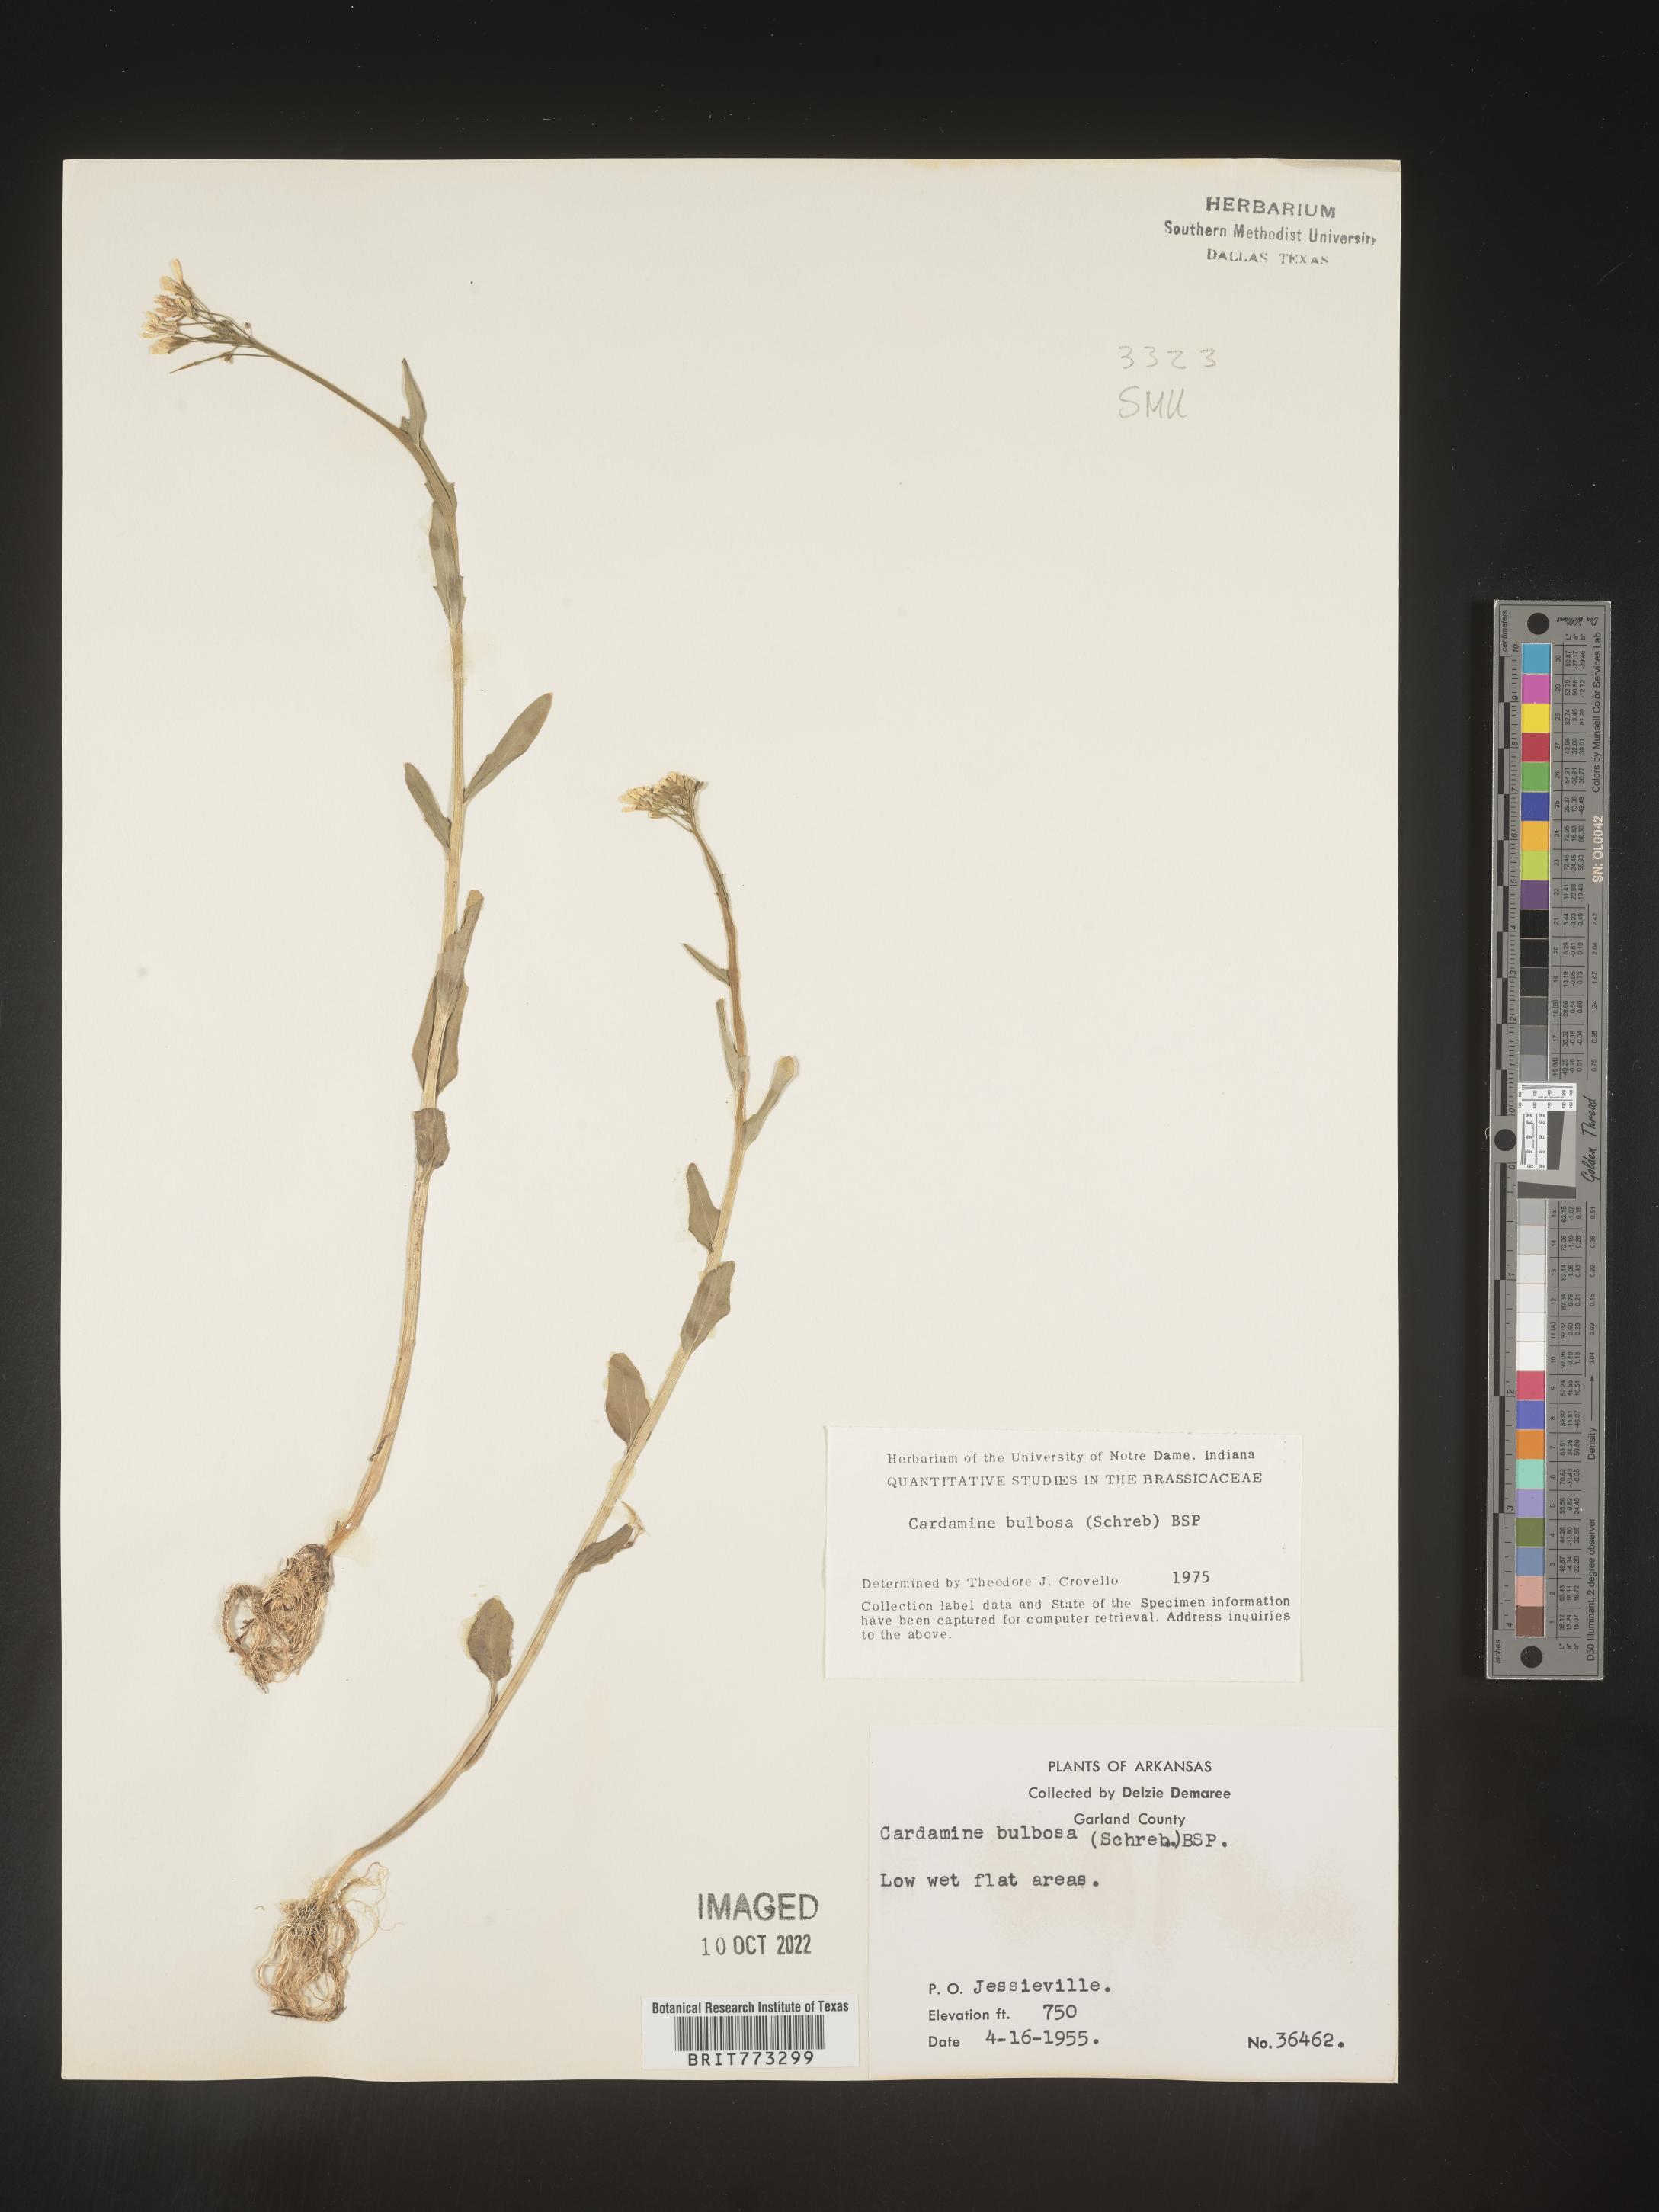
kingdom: Plantae
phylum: Tracheophyta
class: Magnoliopsida
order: Brassicales
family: Brassicaceae
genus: Cardamine
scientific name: Cardamine bulbosa
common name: Spring cress
